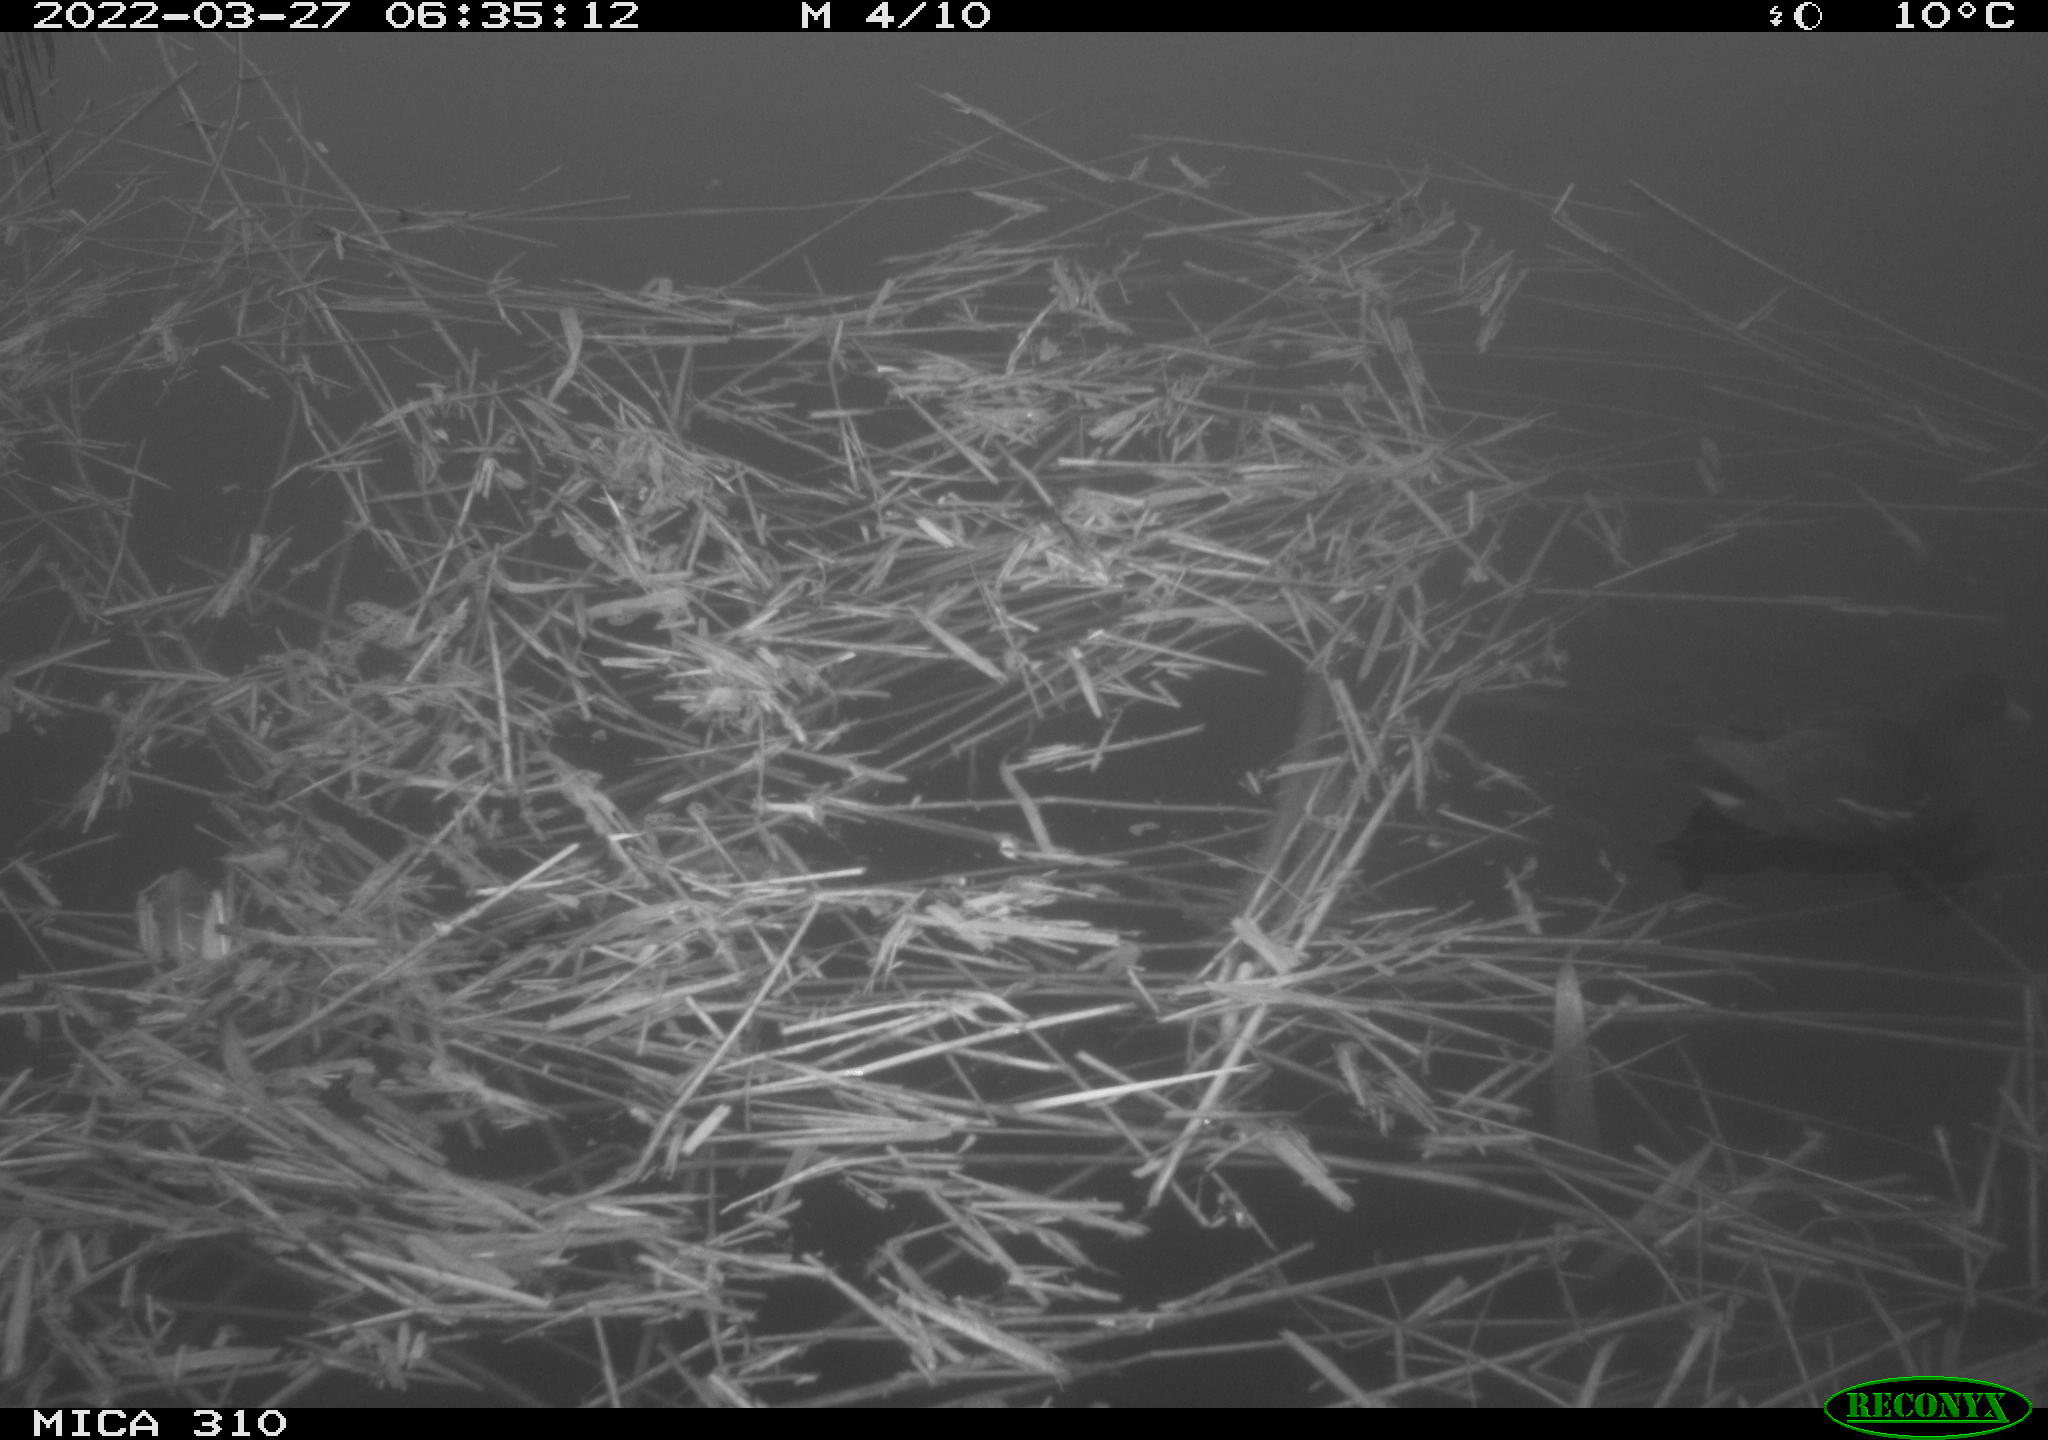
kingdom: Animalia
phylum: Chordata
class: Aves
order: Gruiformes
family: Rallidae
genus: Gallinula
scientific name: Gallinula chloropus
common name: Common moorhen
